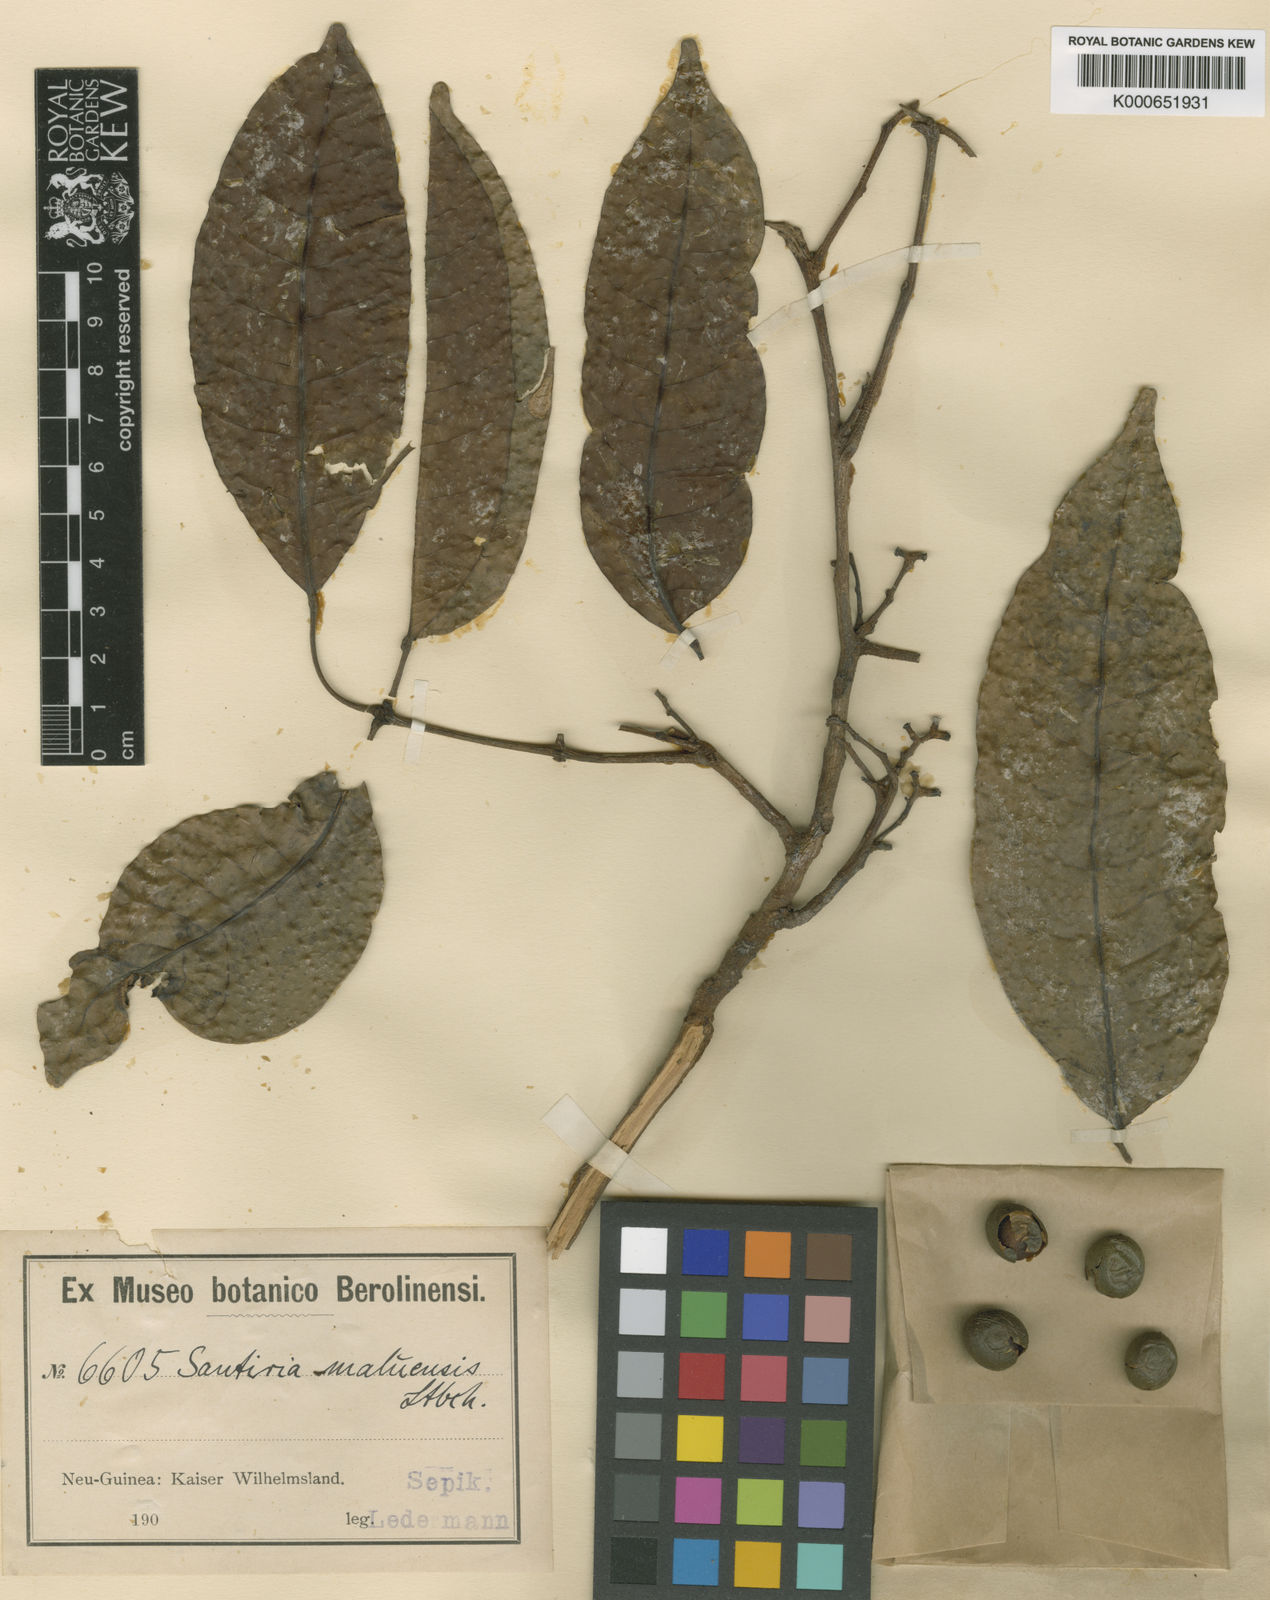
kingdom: Plantae
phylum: Tracheophyta
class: Magnoliopsida
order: Sapindales
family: Burseraceae
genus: Haplolobus
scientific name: Haplolobus floribundus
